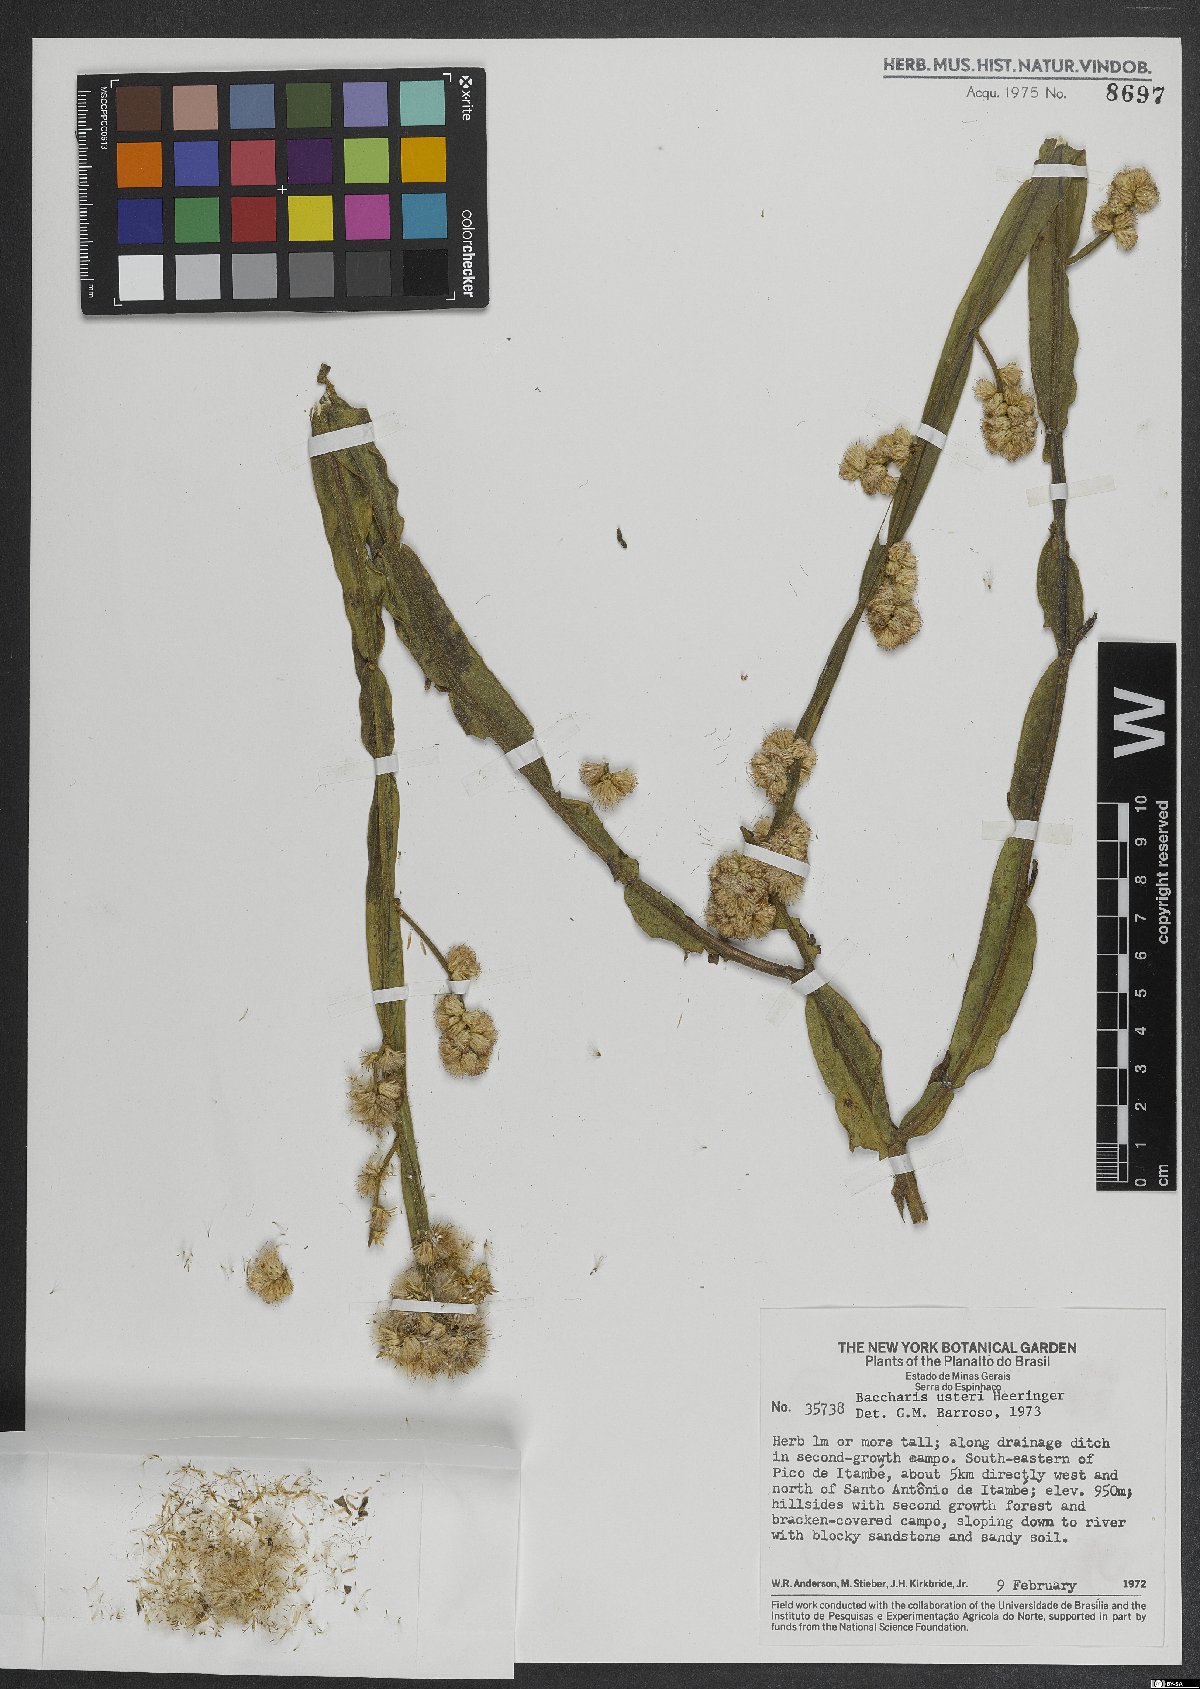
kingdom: Plantae
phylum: Tracheophyta
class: Magnoliopsida
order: Asterales
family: Asteraceae
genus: Baccharis
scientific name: Baccharis usterii
